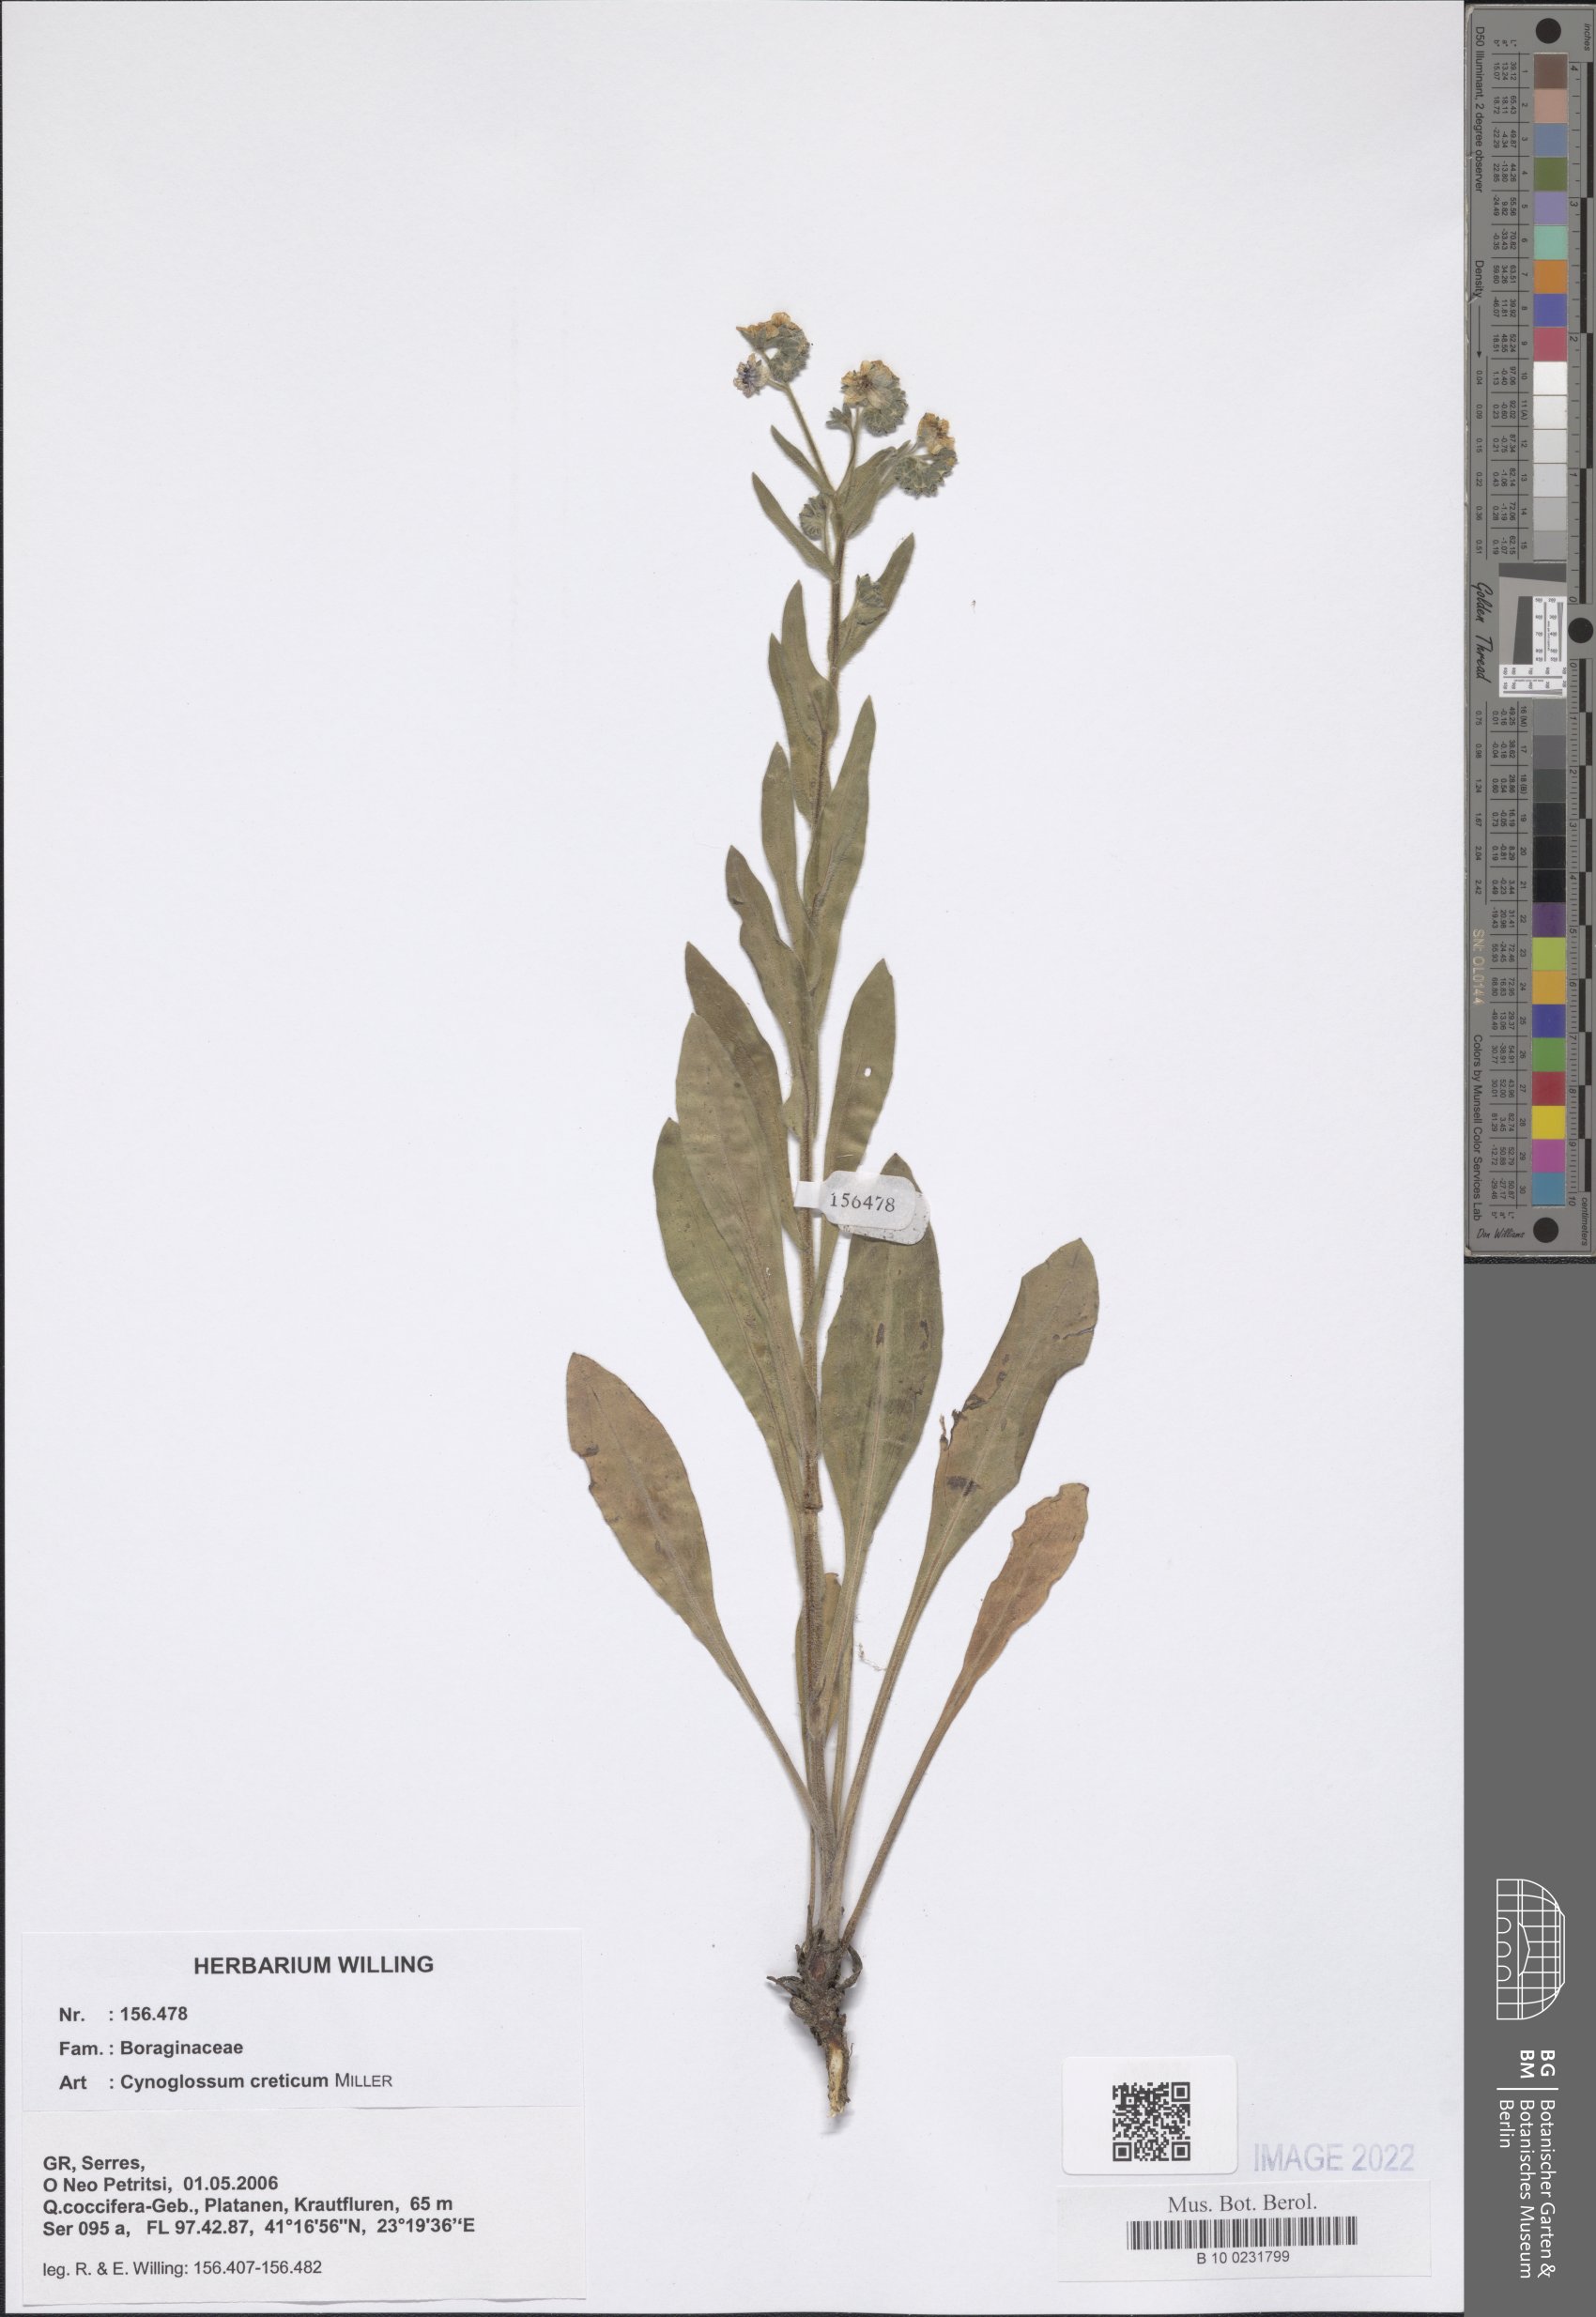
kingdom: Plantae
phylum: Tracheophyta
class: Magnoliopsida
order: Boraginales
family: Boraginaceae
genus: Cynoglossum
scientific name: Cynoglossum creticum
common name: Blue hound's tongue
